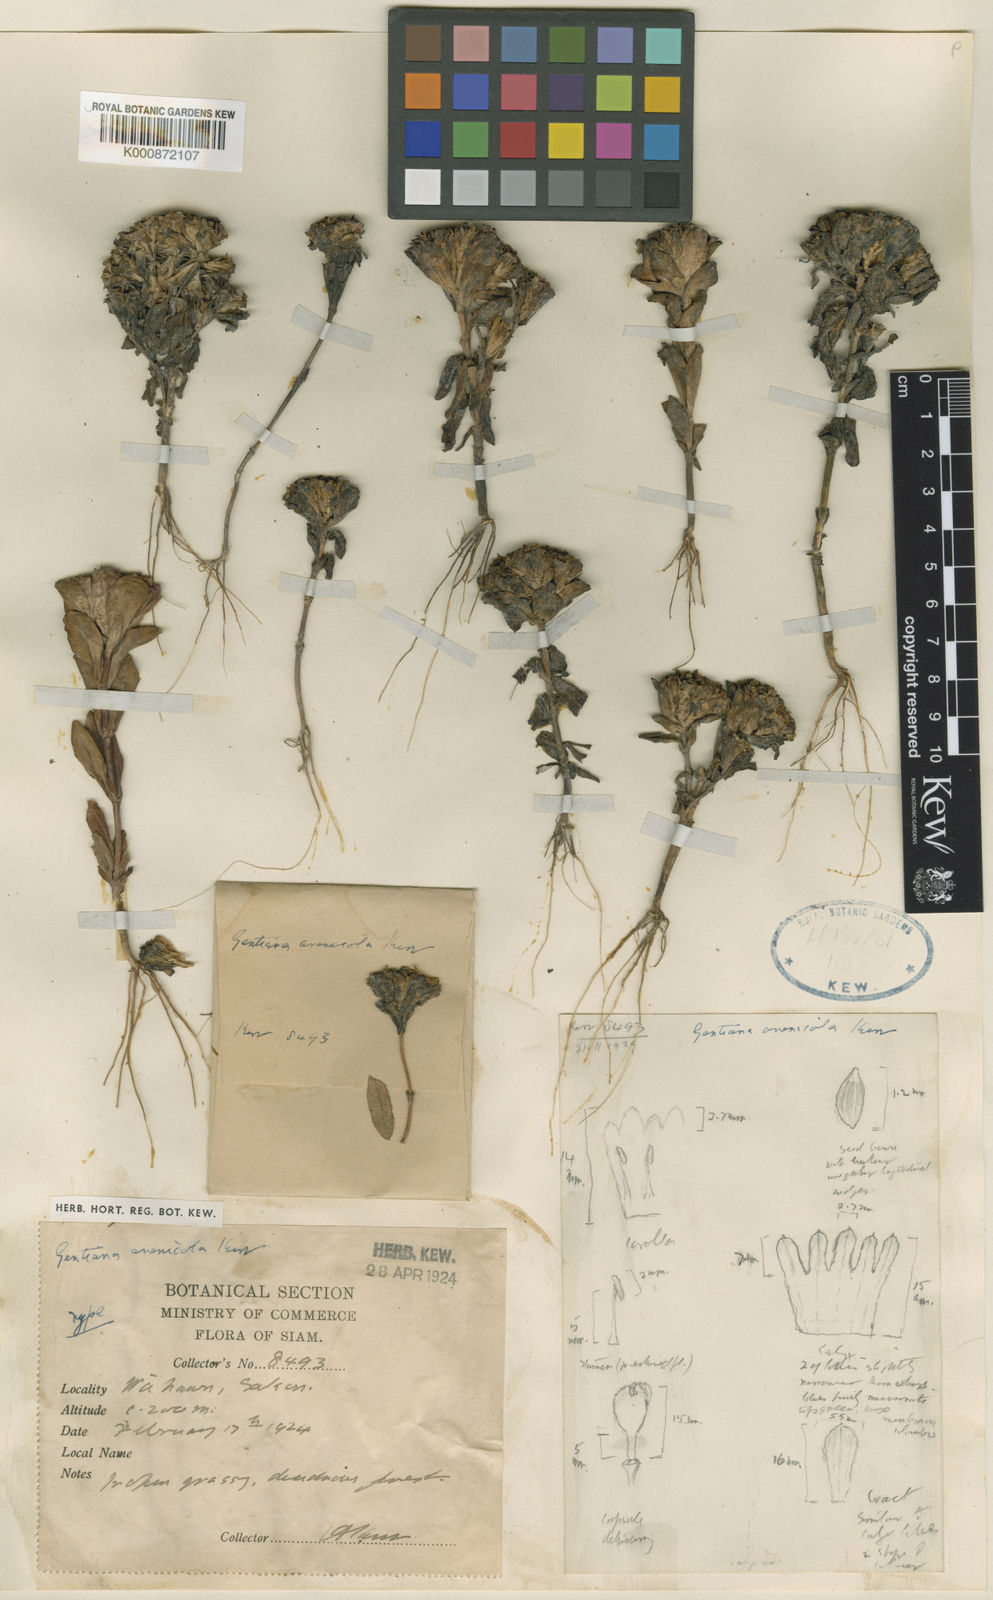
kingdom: Plantae
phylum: Tracheophyta
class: Magnoliopsida
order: Gentianales
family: Gentianaceae
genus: Gentiana
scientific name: Gentiana arenicola
